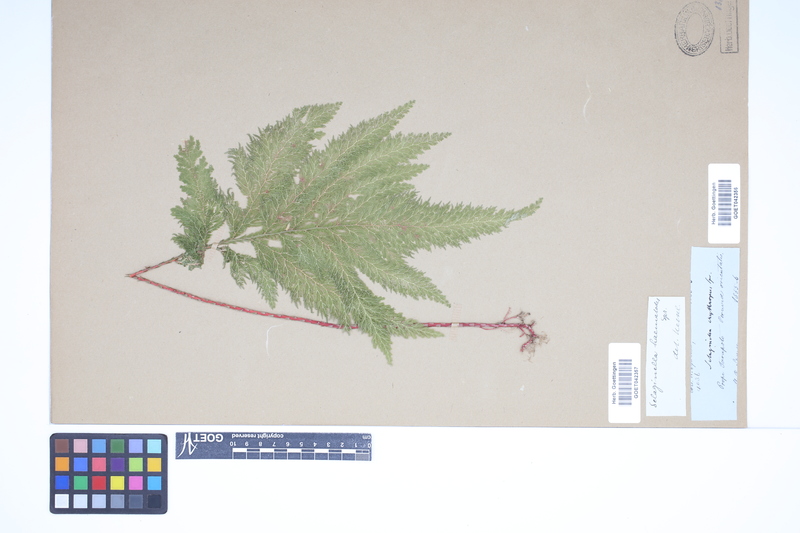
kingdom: Plantae
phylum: Tracheophyta
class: Lycopodiopsida
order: Selaginellales
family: Selaginellaceae
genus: Selaginella
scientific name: Selaginella haematodes
